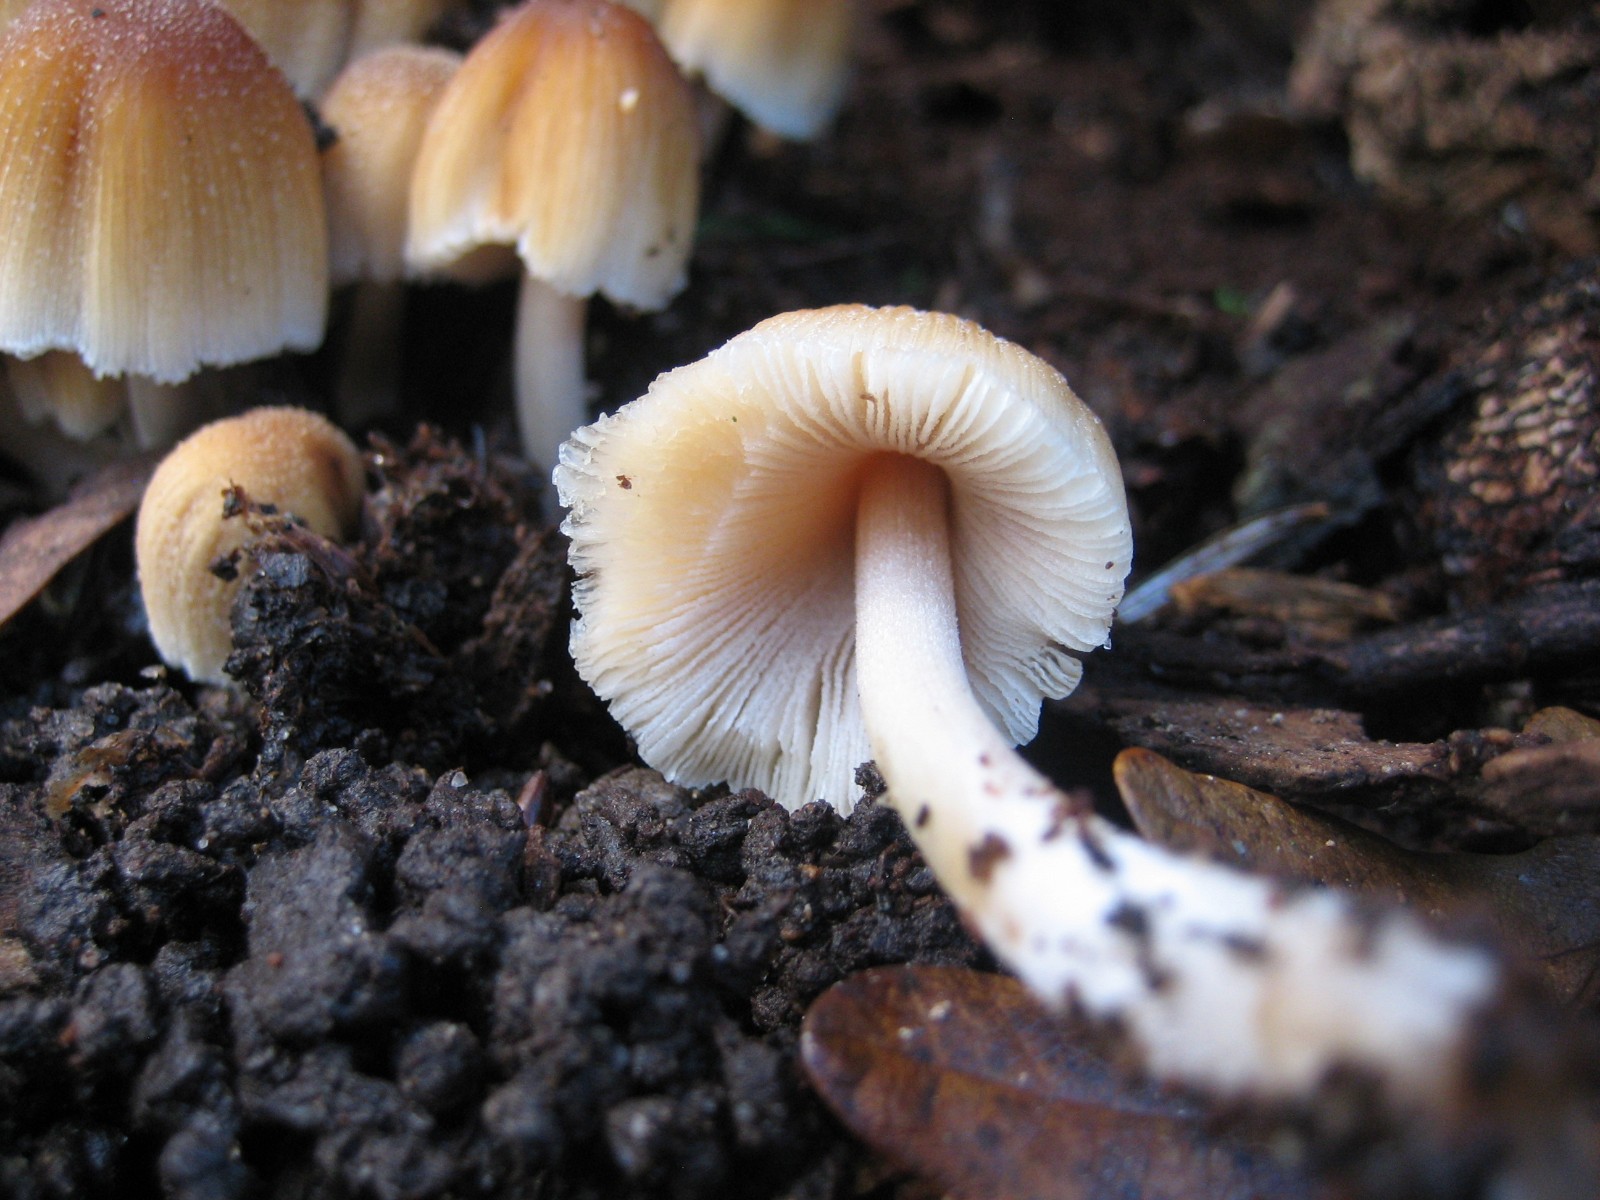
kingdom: Fungi
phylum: Basidiomycota
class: Agaricomycetes
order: Agaricales
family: Psathyrellaceae
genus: Coprinellus
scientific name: Coprinellus micaceus
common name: glimmer-blækhat
